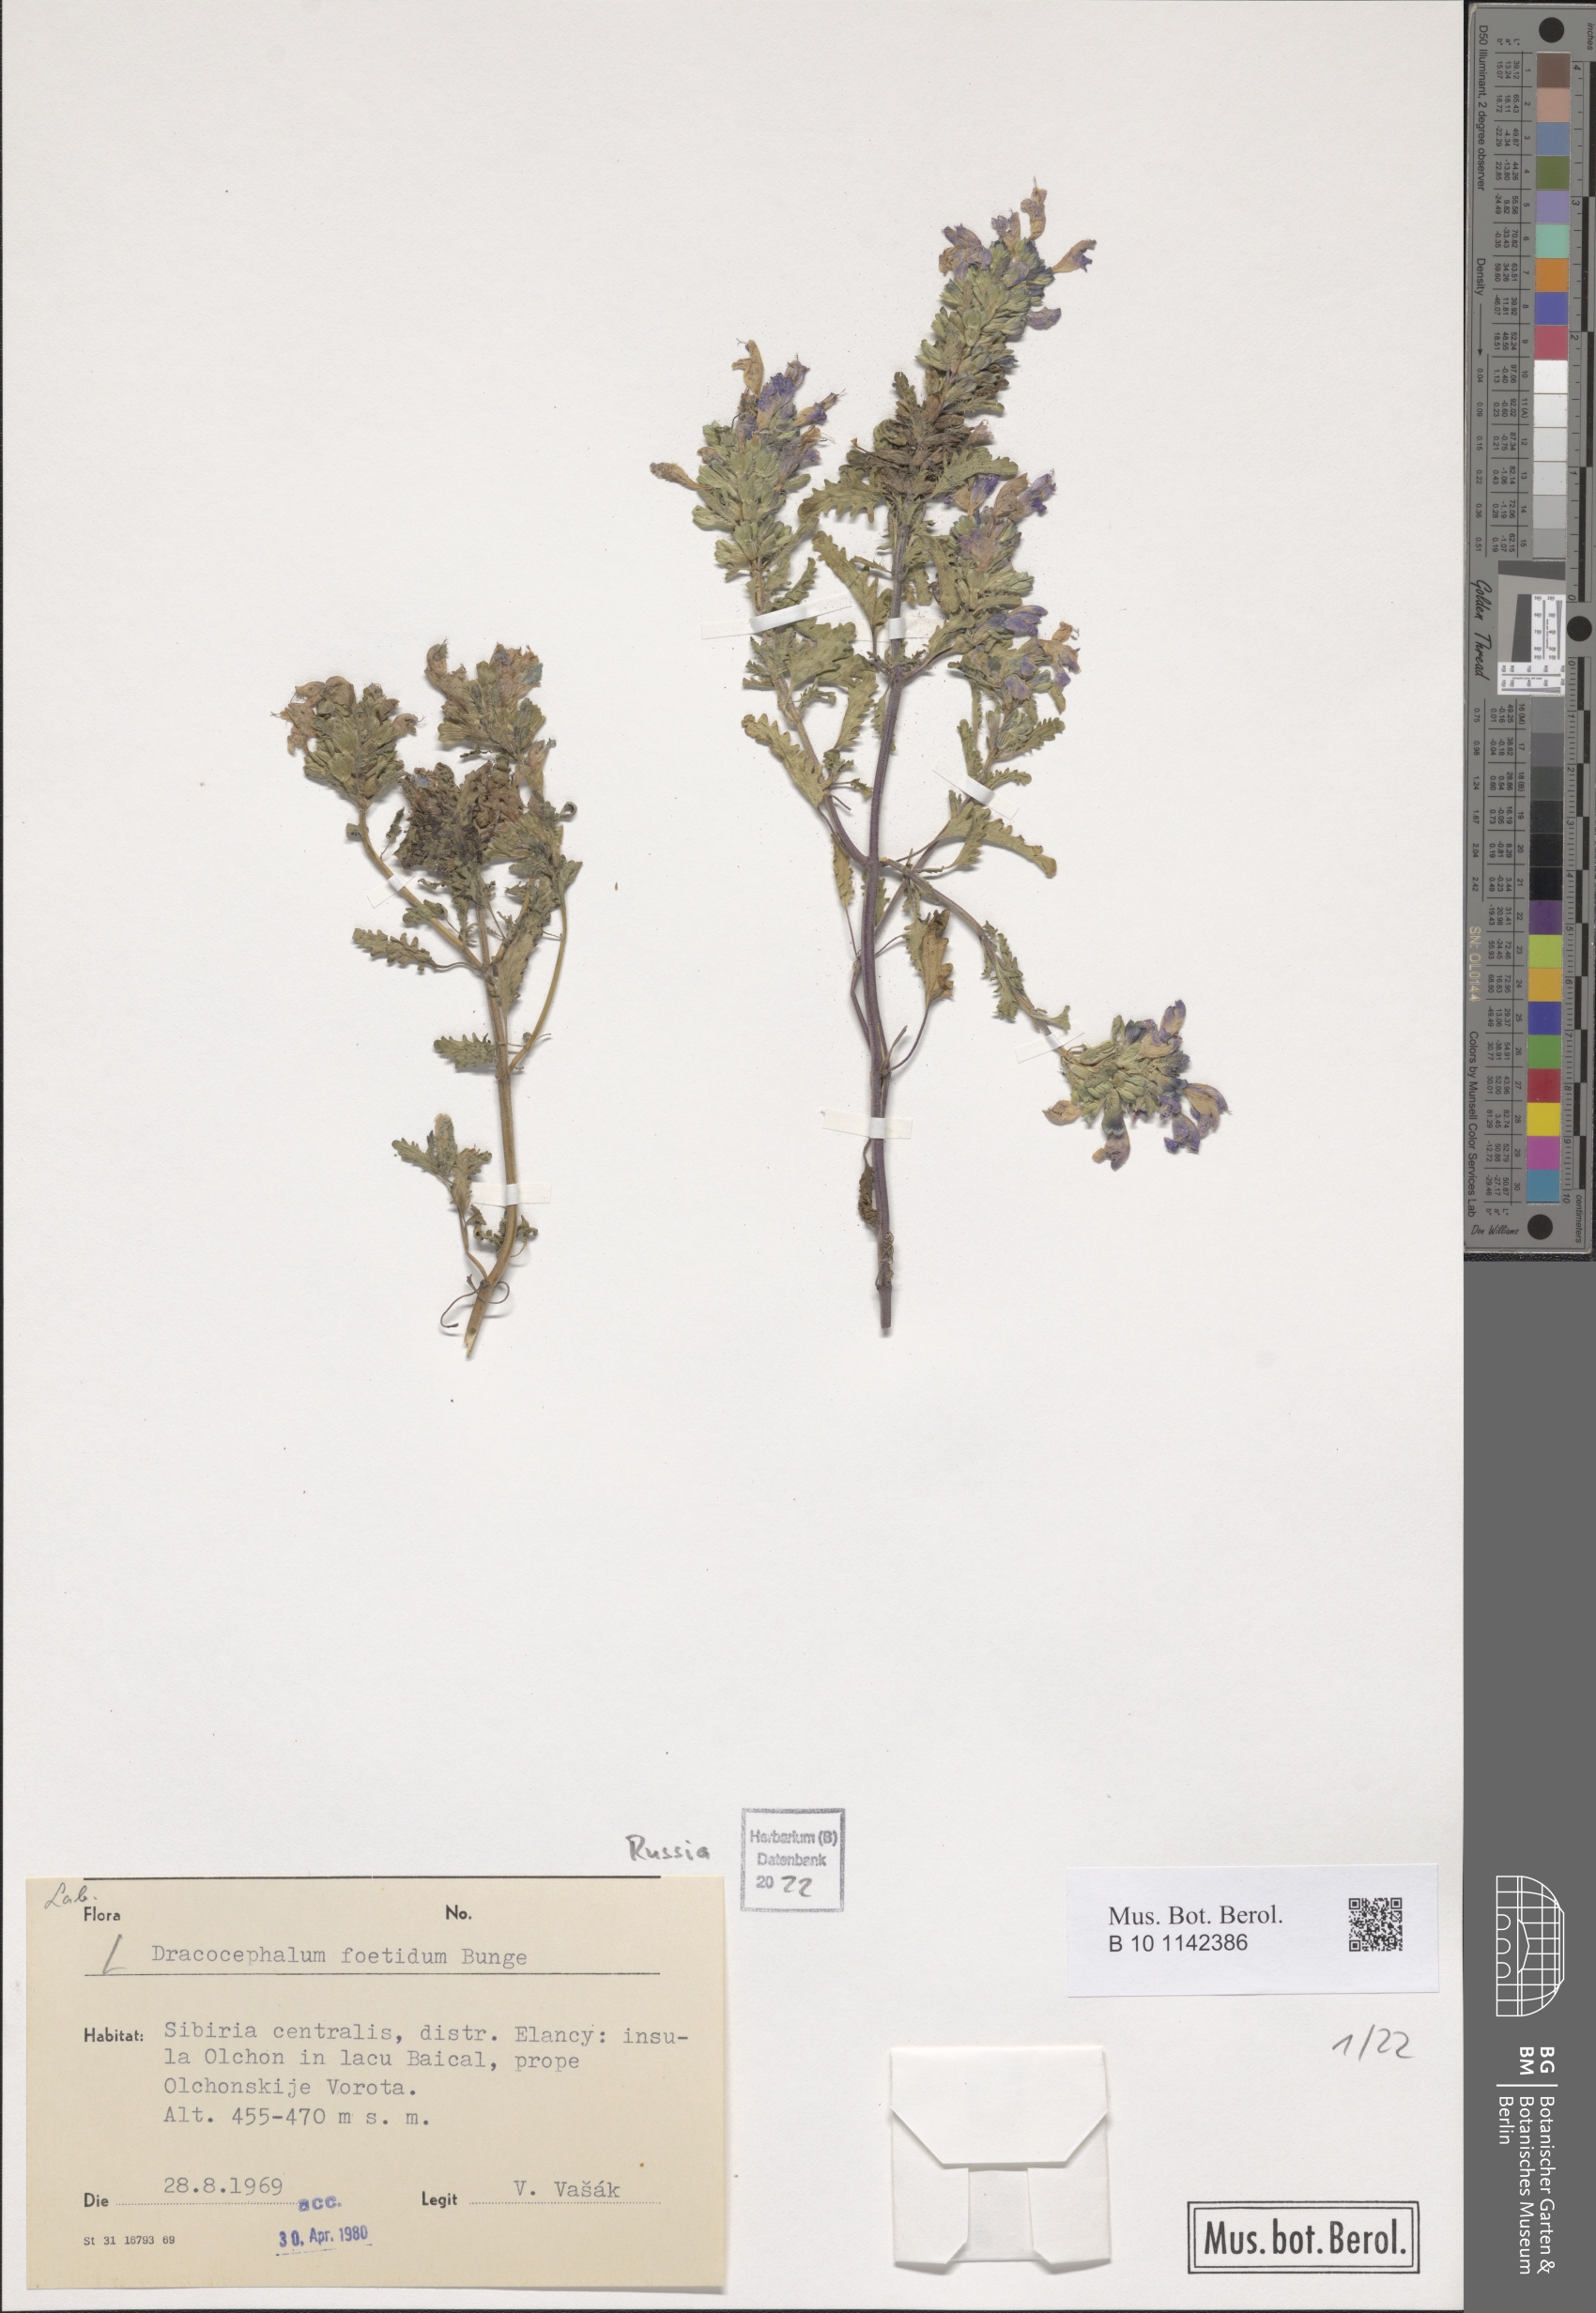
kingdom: Plantae
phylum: Tracheophyta
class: Magnoliopsida
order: Lamiales
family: Lamiaceae
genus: Dracocephalum
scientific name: Dracocephalum foetidum
